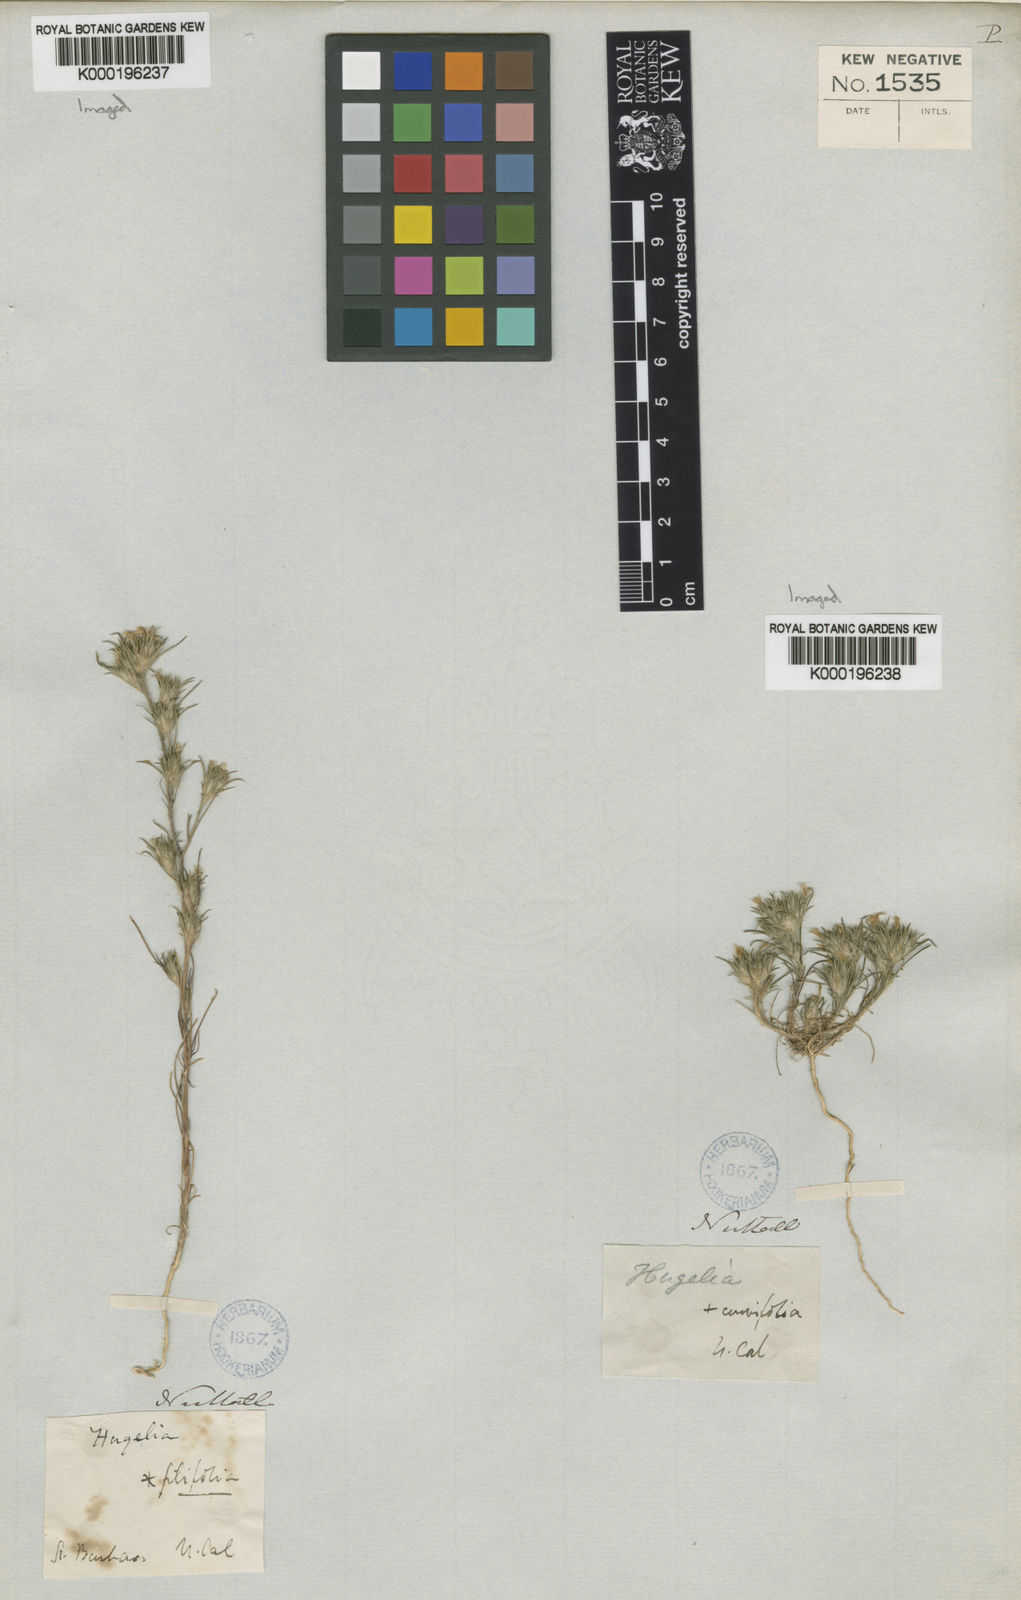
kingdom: Plantae
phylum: Tracheophyta
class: Magnoliopsida
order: Ericales
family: Polemoniaceae
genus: Eriastrum
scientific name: Eriastrum filifolium
